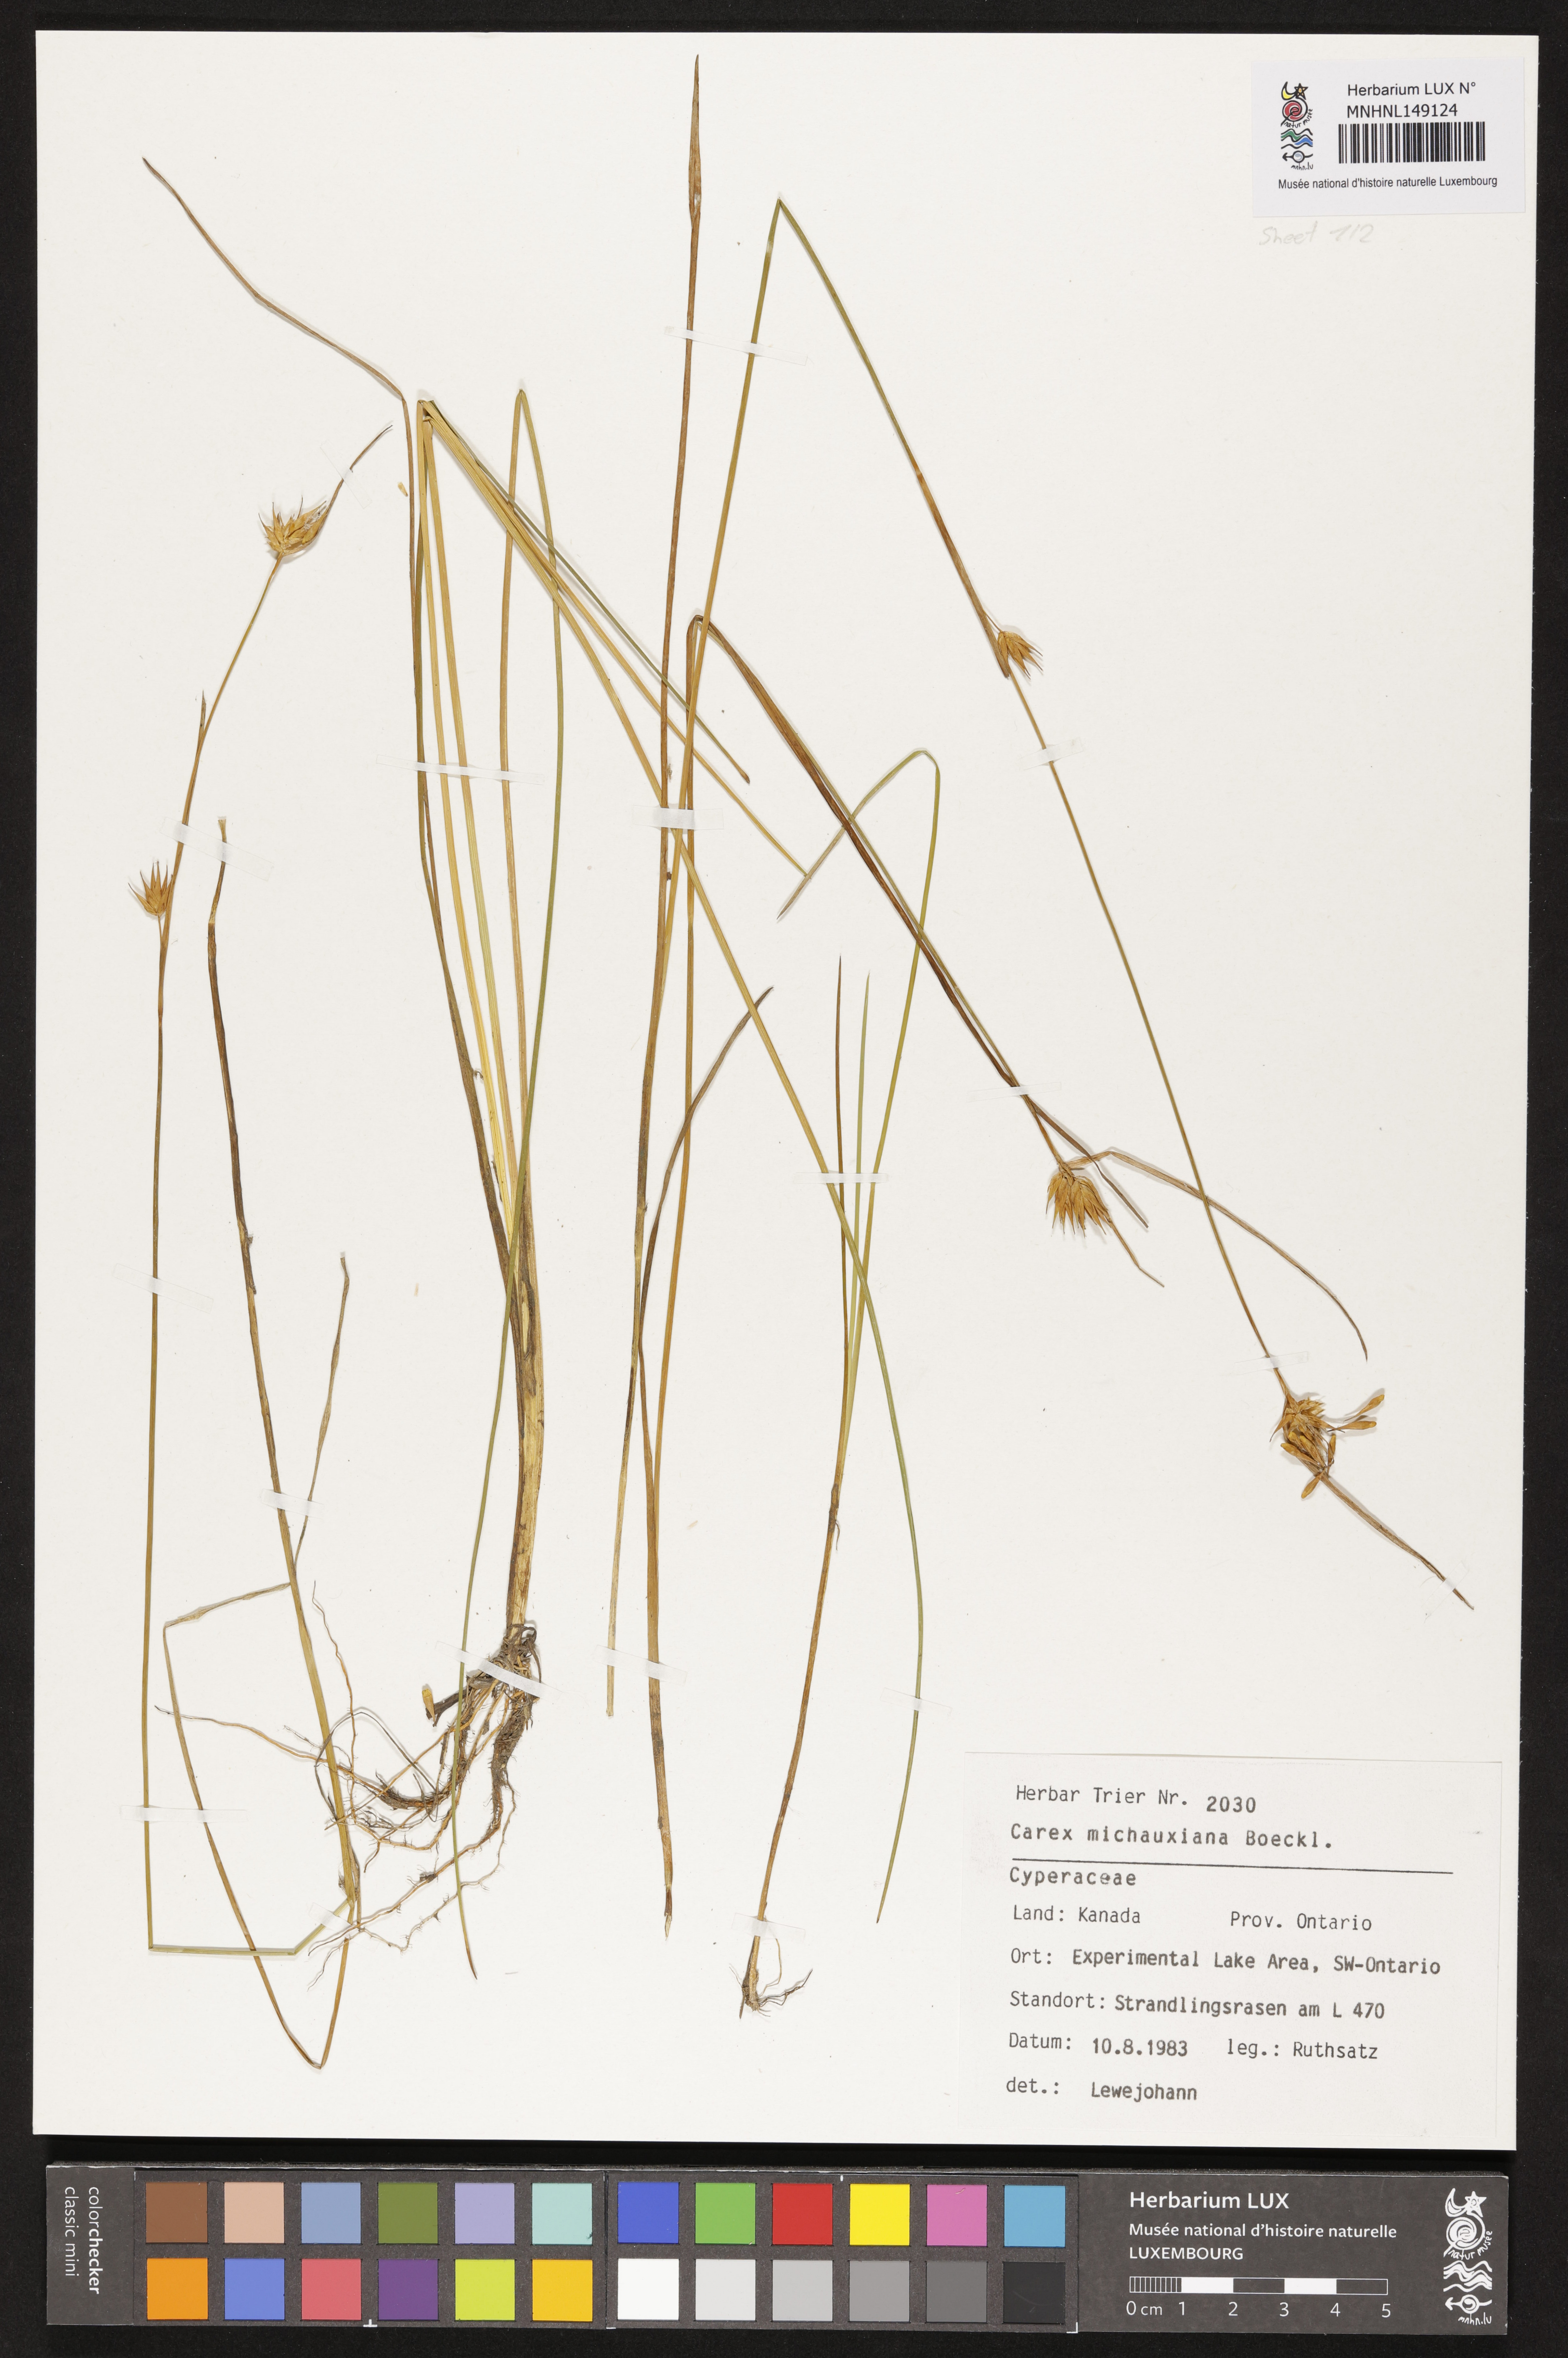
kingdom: Plantae
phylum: Tracheophyta
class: Liliopsida
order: Poales
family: Cyperaceae
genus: Carex
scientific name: Carex michauxiana
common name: Michaux's sedge
